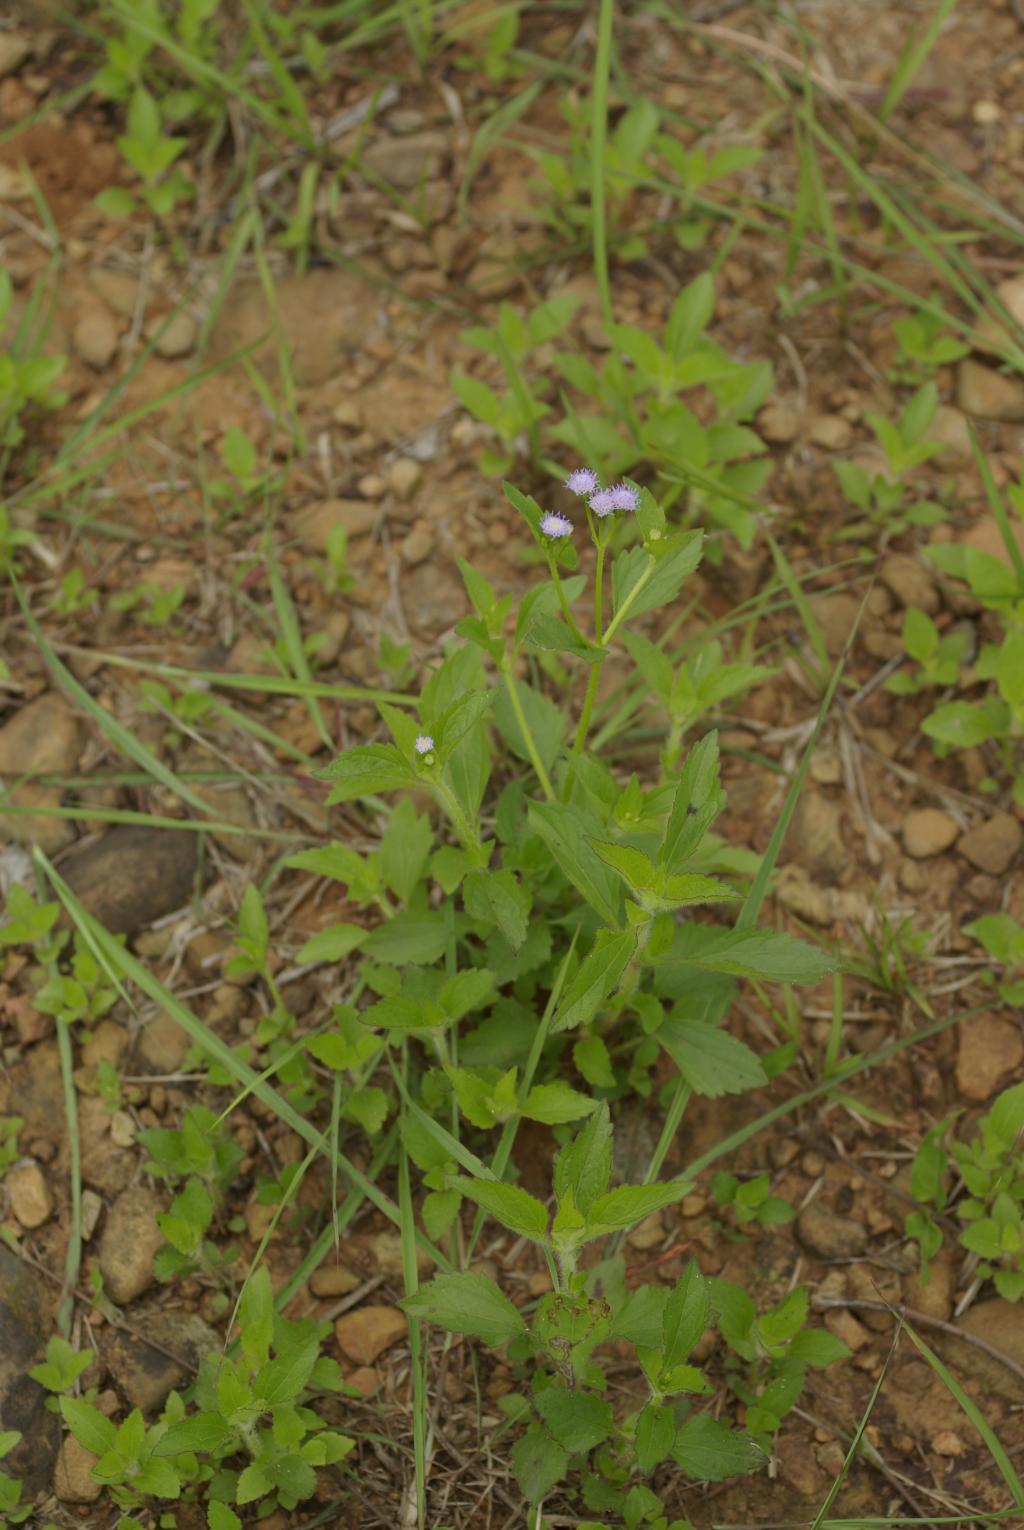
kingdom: Plantae
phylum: Tracheophyta
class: Magnoliopsida
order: Asterales
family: Asteraceae
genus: Praxelis
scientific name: Praxelis clematidea
